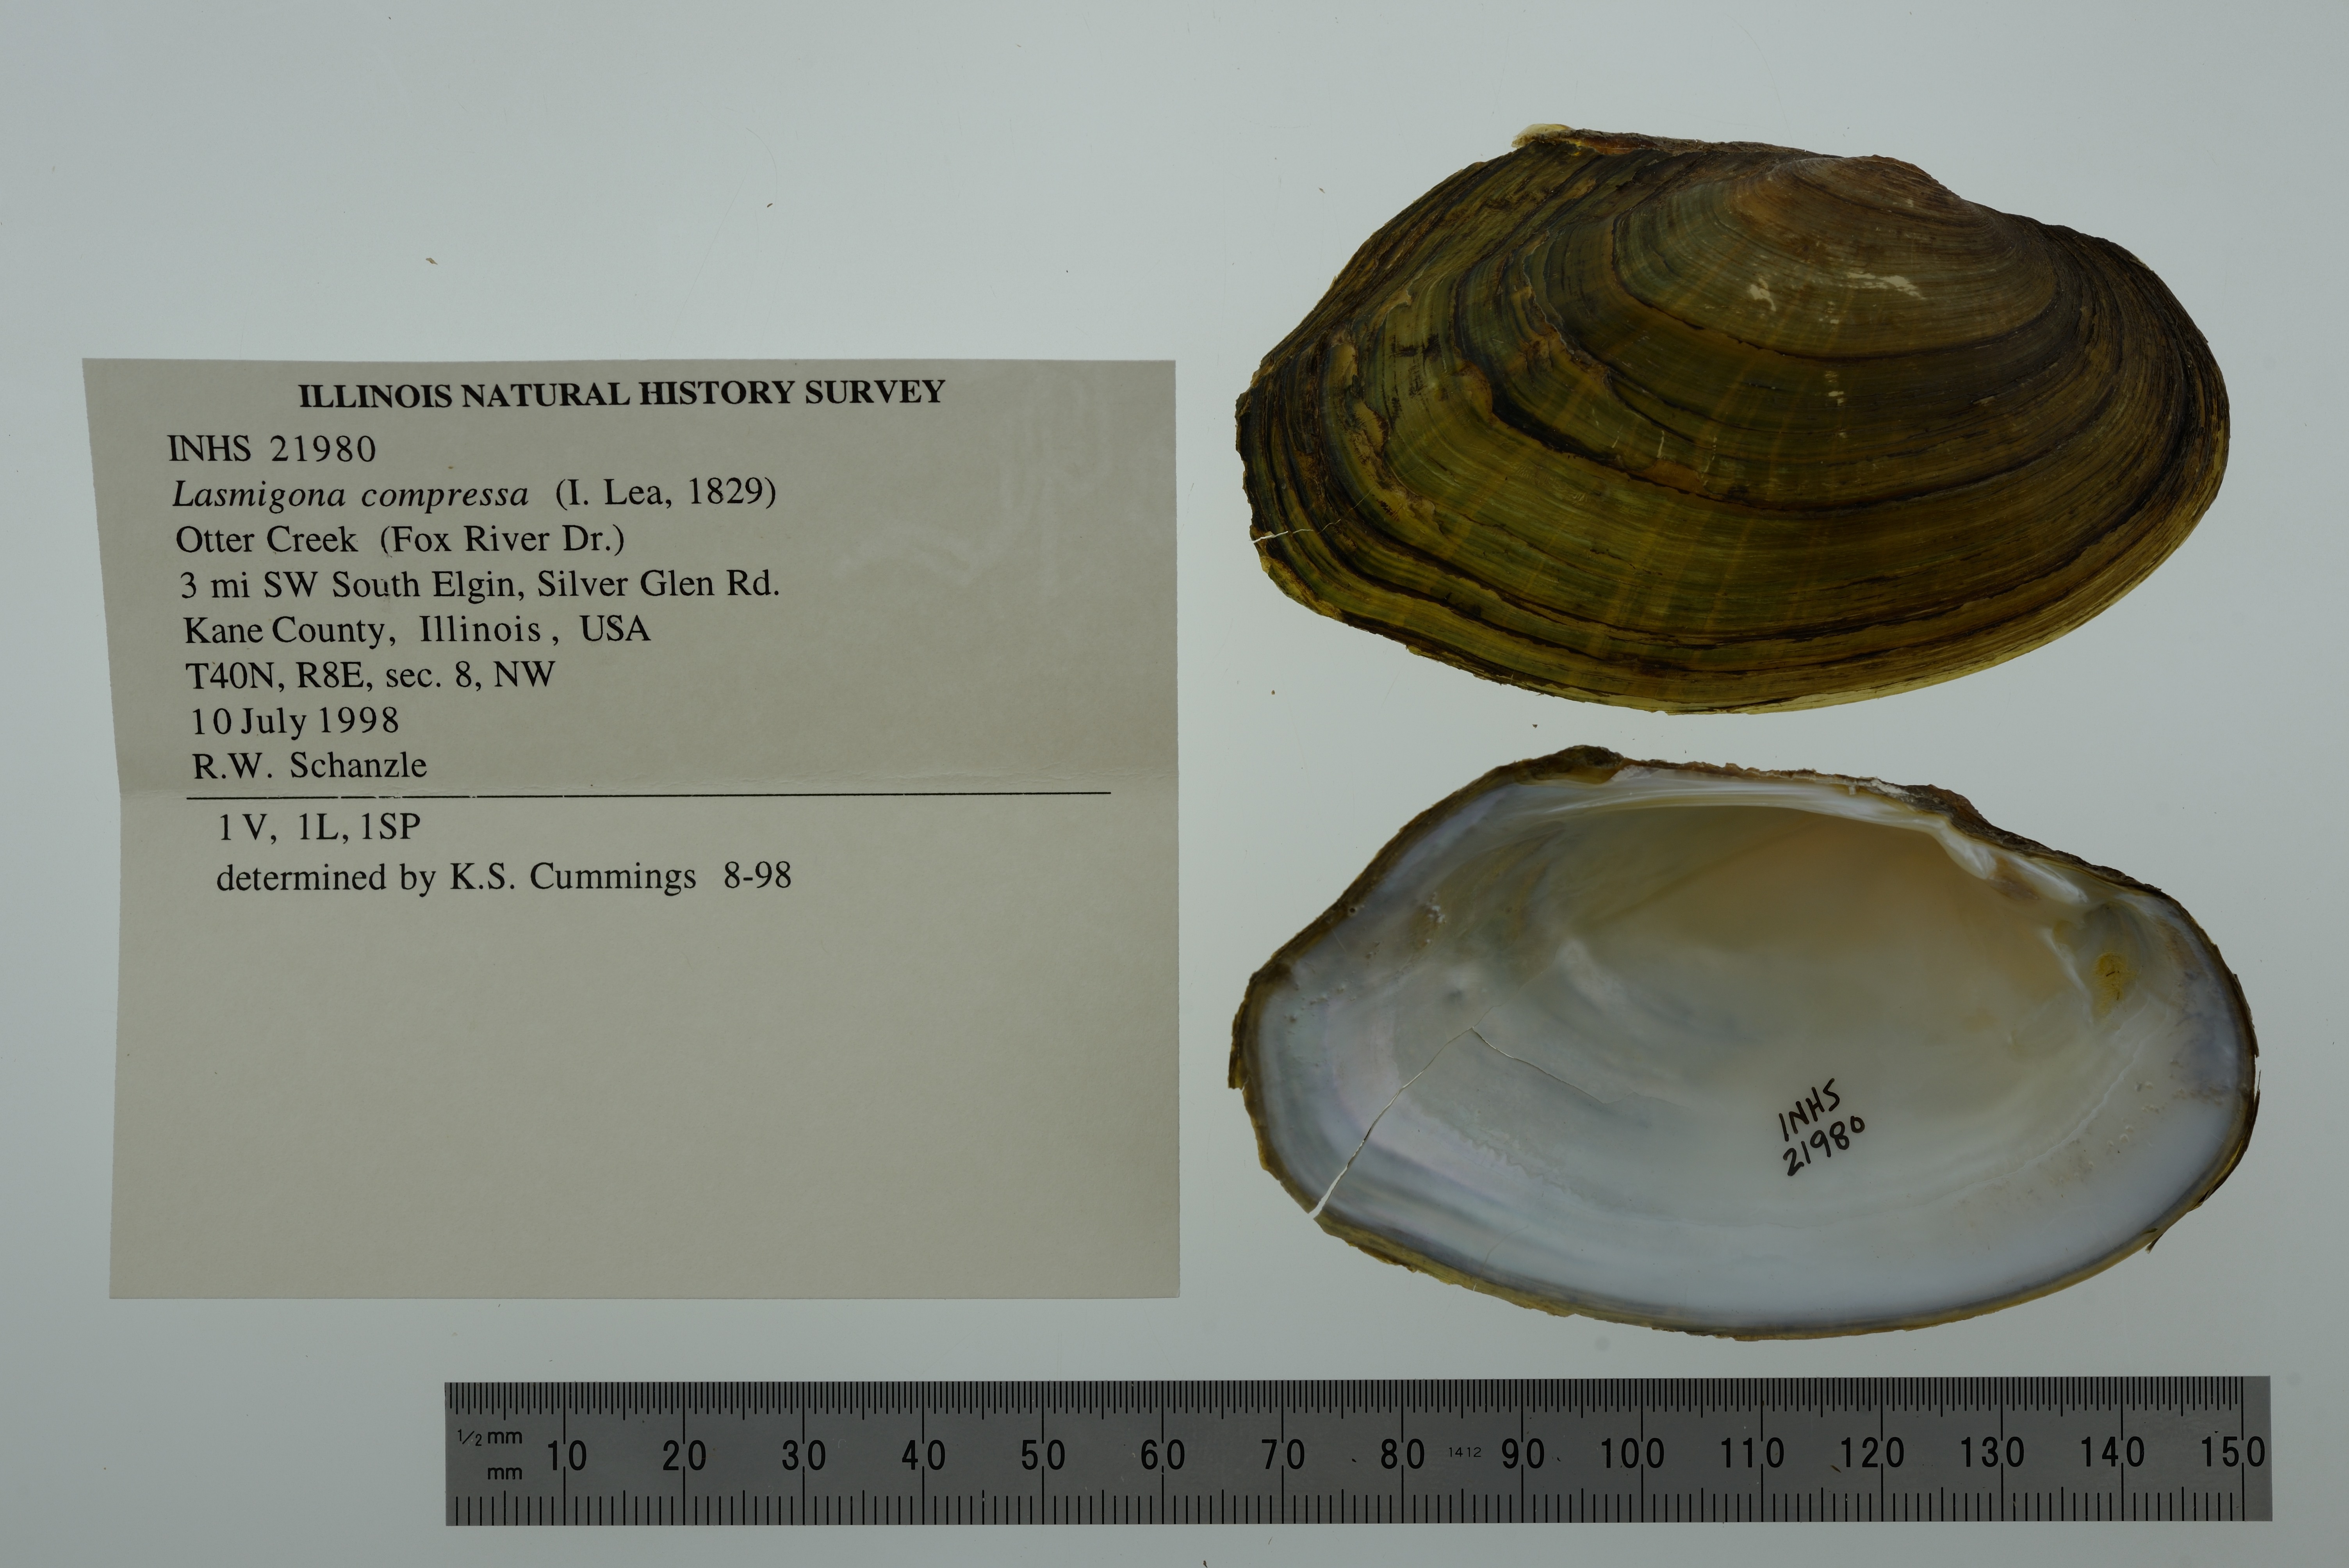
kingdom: Animalia
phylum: Mollusca
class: Bivalvia
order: Unionida
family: Unionidae
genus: Lasmigona
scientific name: Lasmigona compressa
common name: Creek heelsplitter
